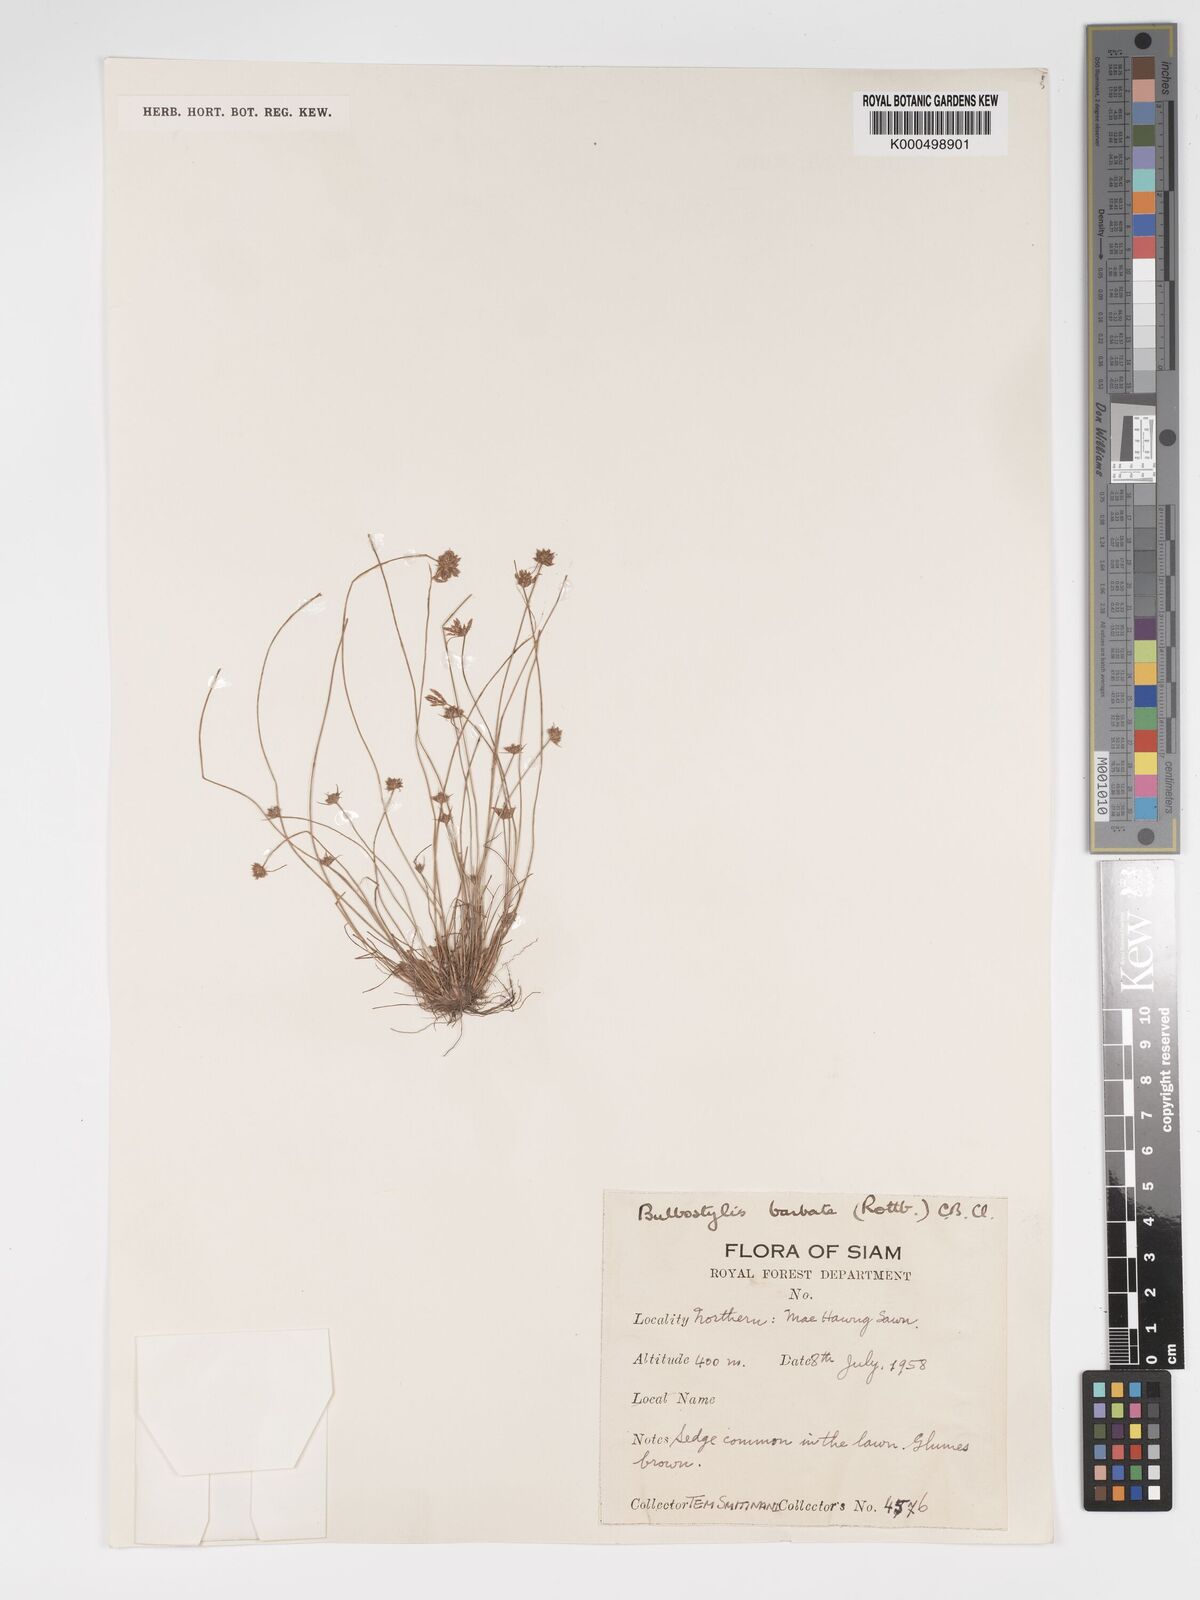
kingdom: Plantae
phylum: Tracheophyta
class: Liliopsida
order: Poales
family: Cyperaceae
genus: Bulbostylis
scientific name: Bulbostylis barbata
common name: Watergrass
